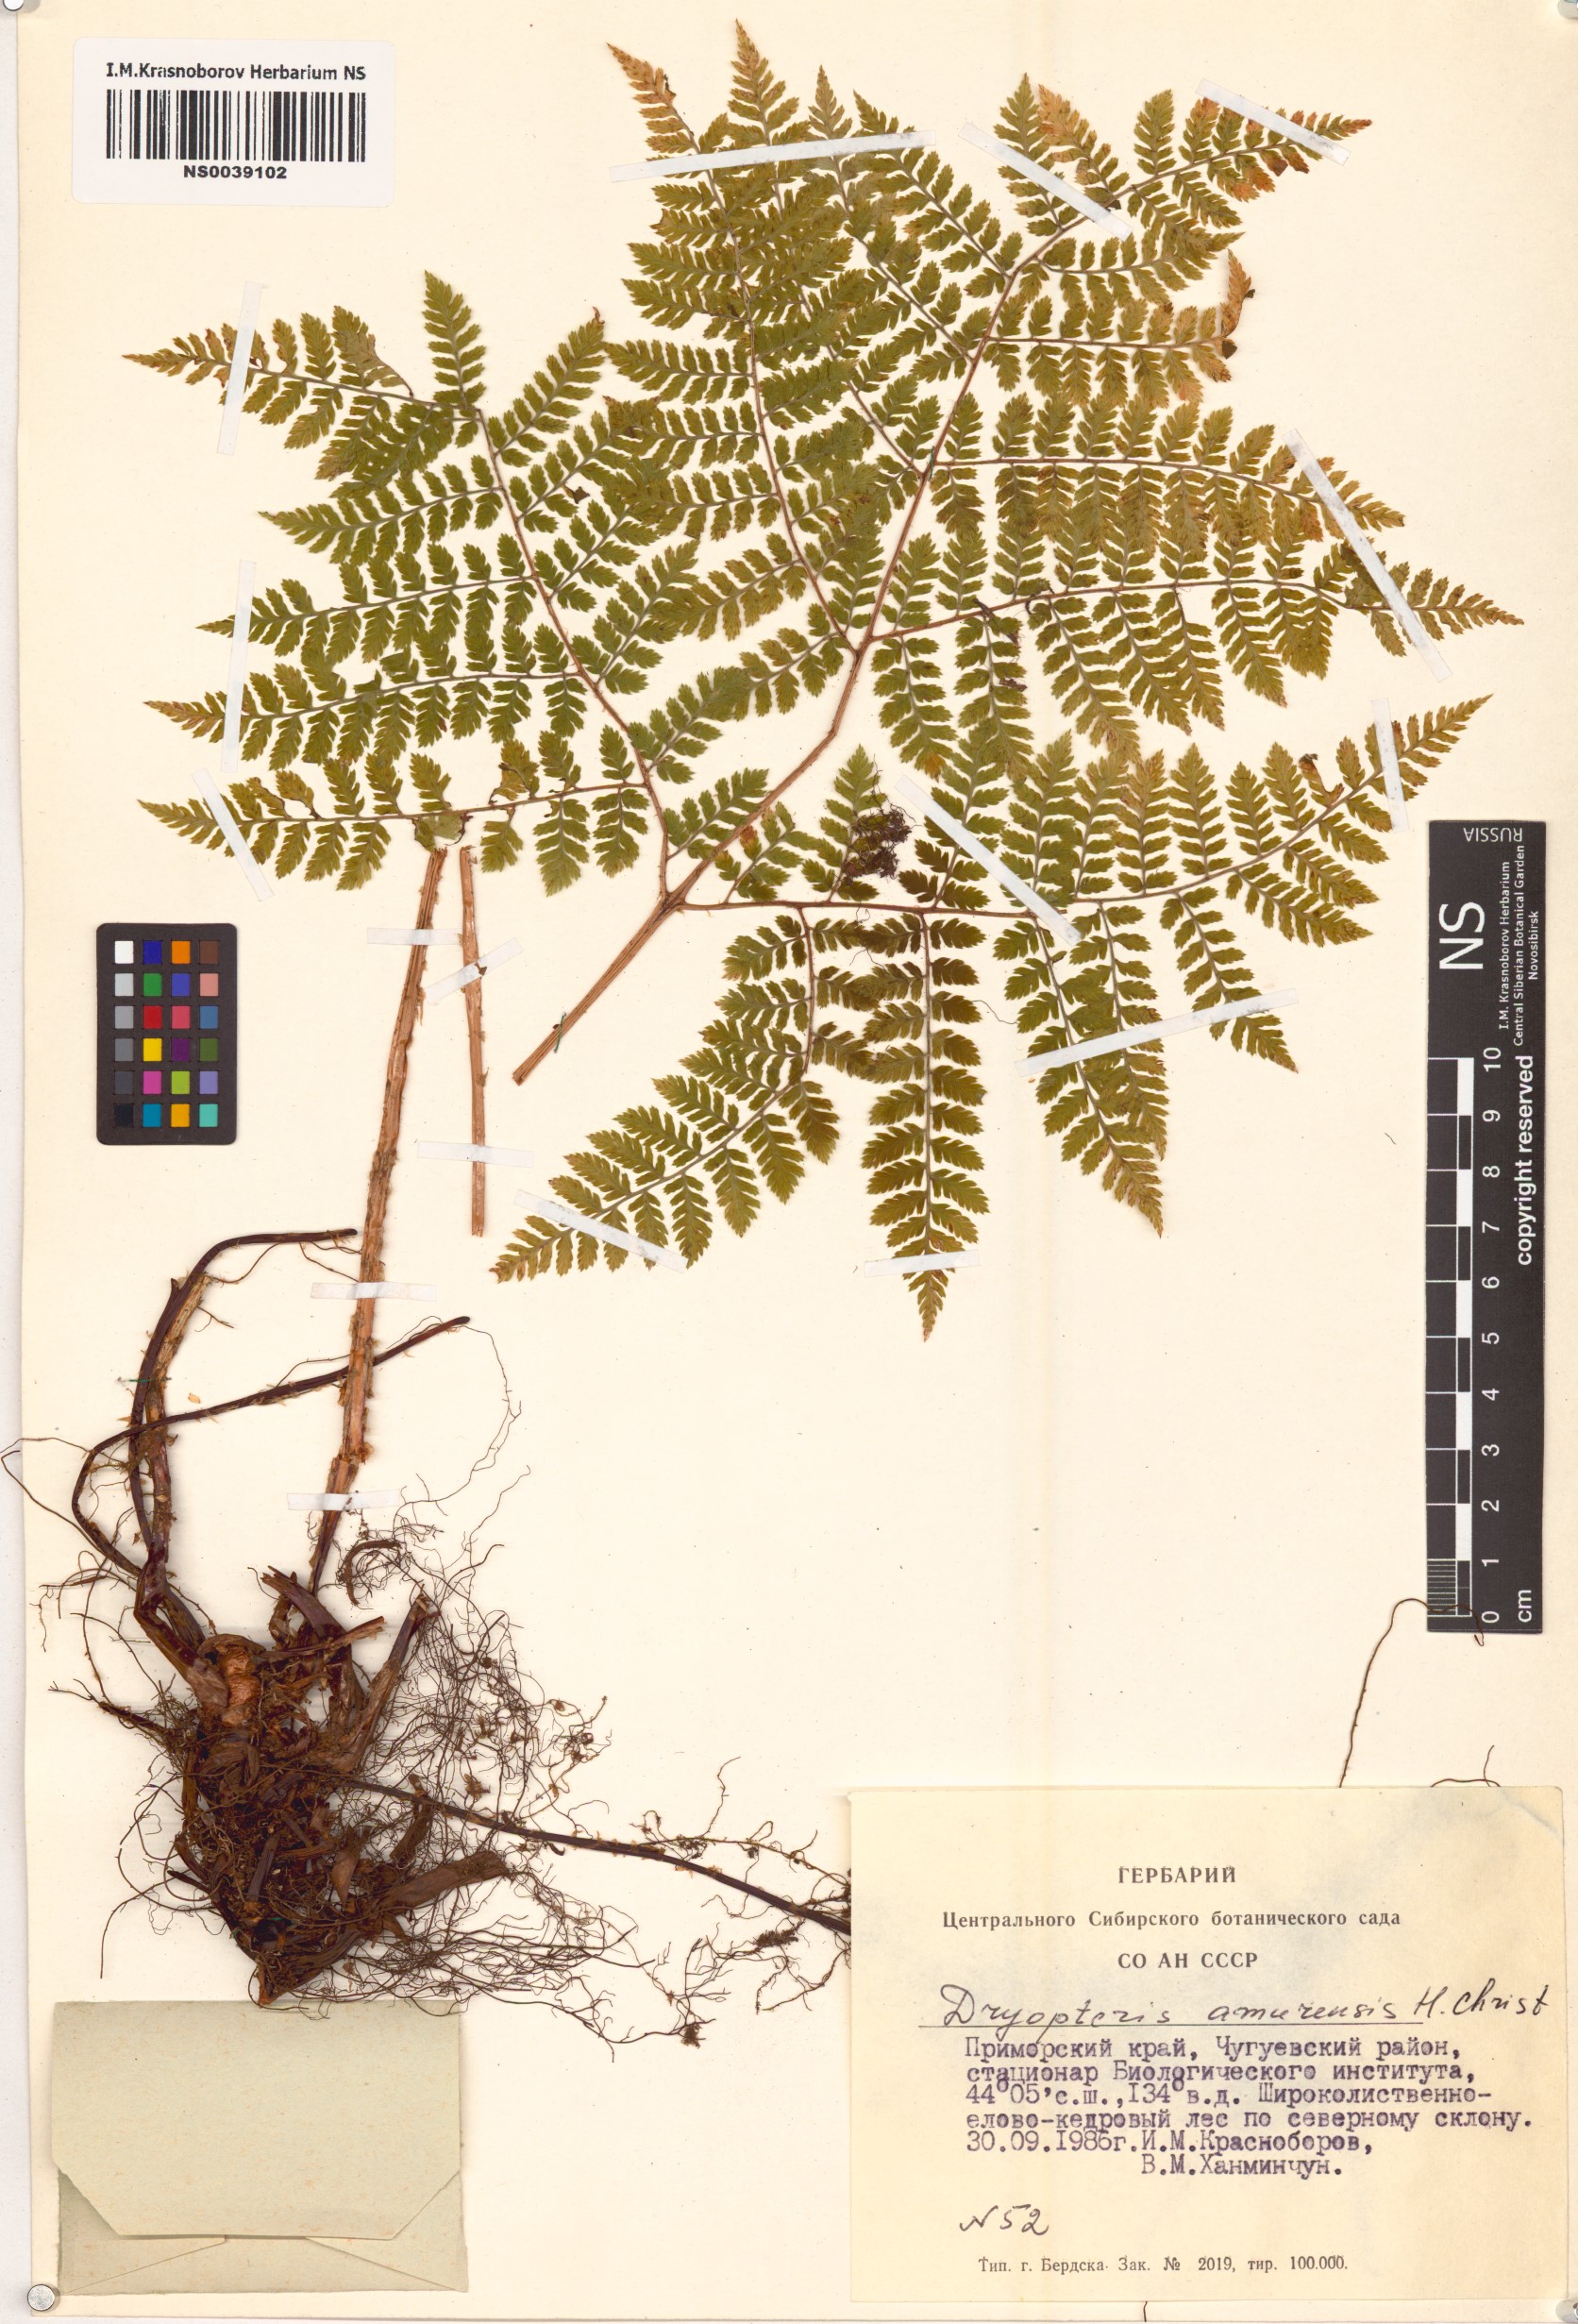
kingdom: Plantae
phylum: Tracheophyta
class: Polypodiopsida
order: Polypodiales
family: Dryopteridaceae
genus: Dryopteris
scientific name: Dryopteris amurensis
